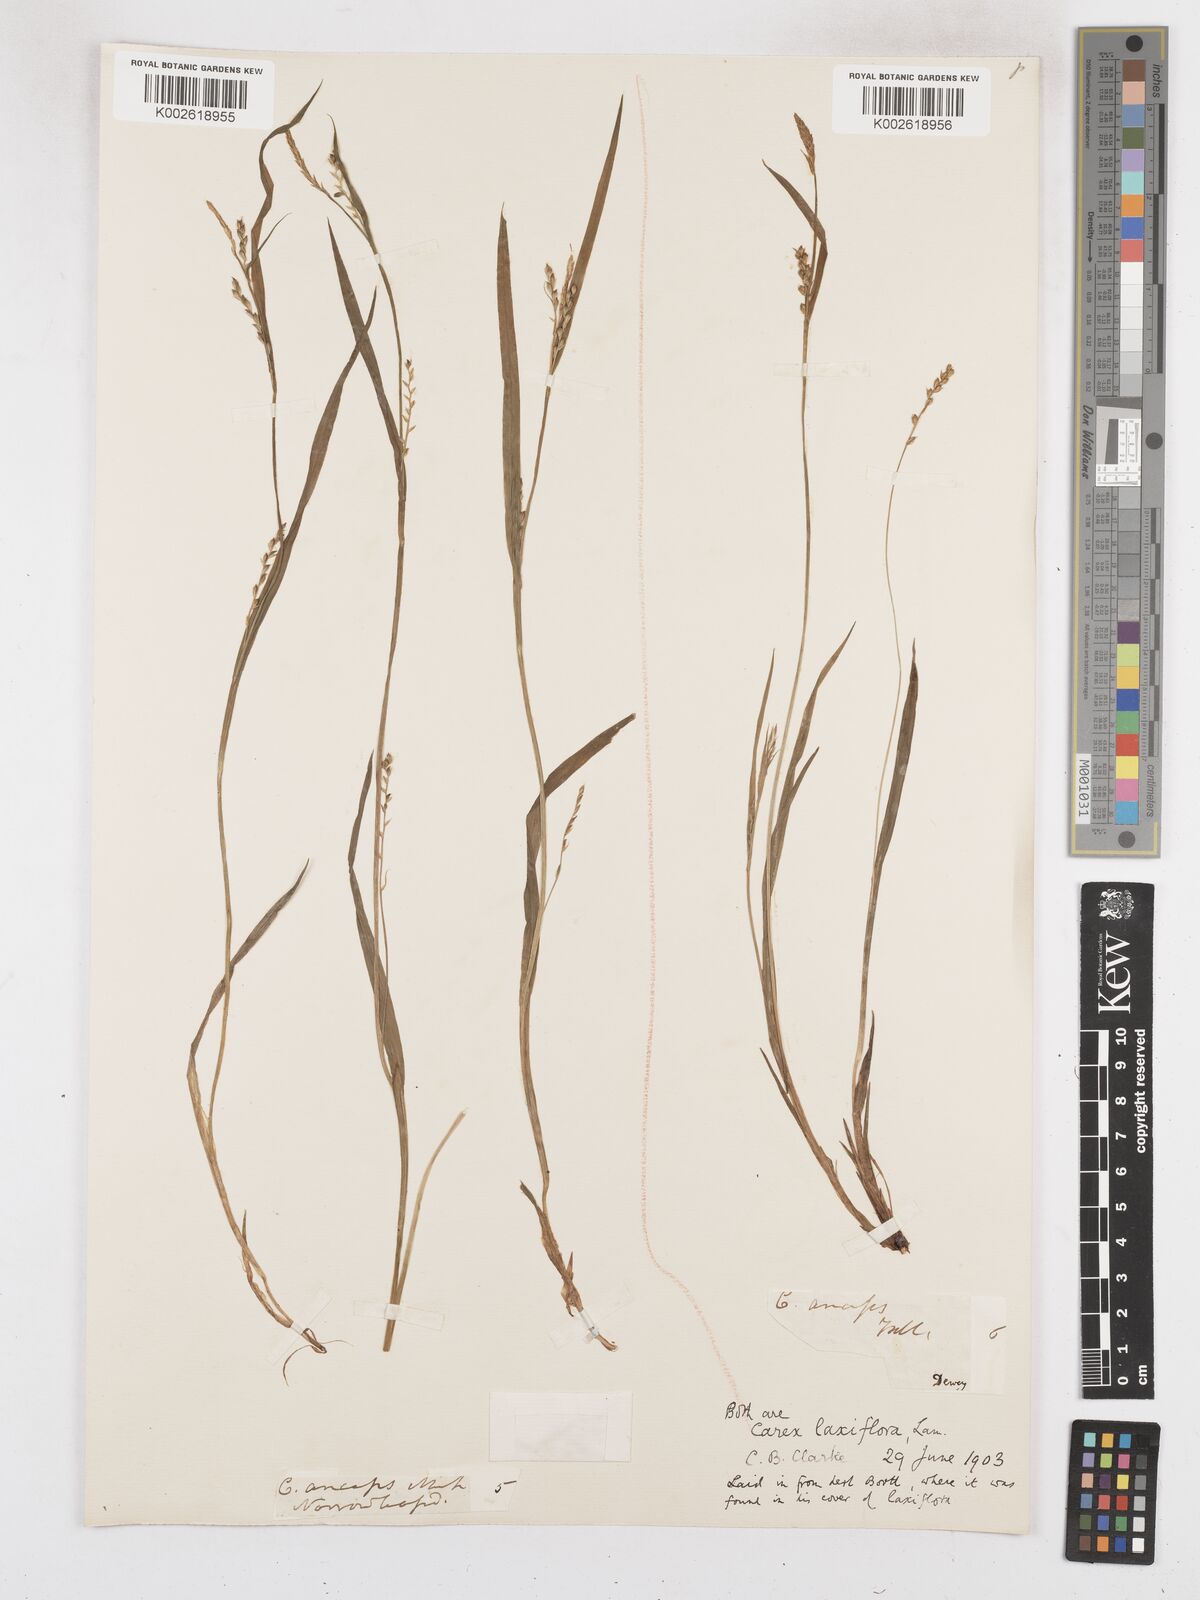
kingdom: Plantae
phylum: Tracheophyta
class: Liliopsida
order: Poales
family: Cyperaceae
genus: Carex
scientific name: Carex laxiflora
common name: Beech wood sedge
